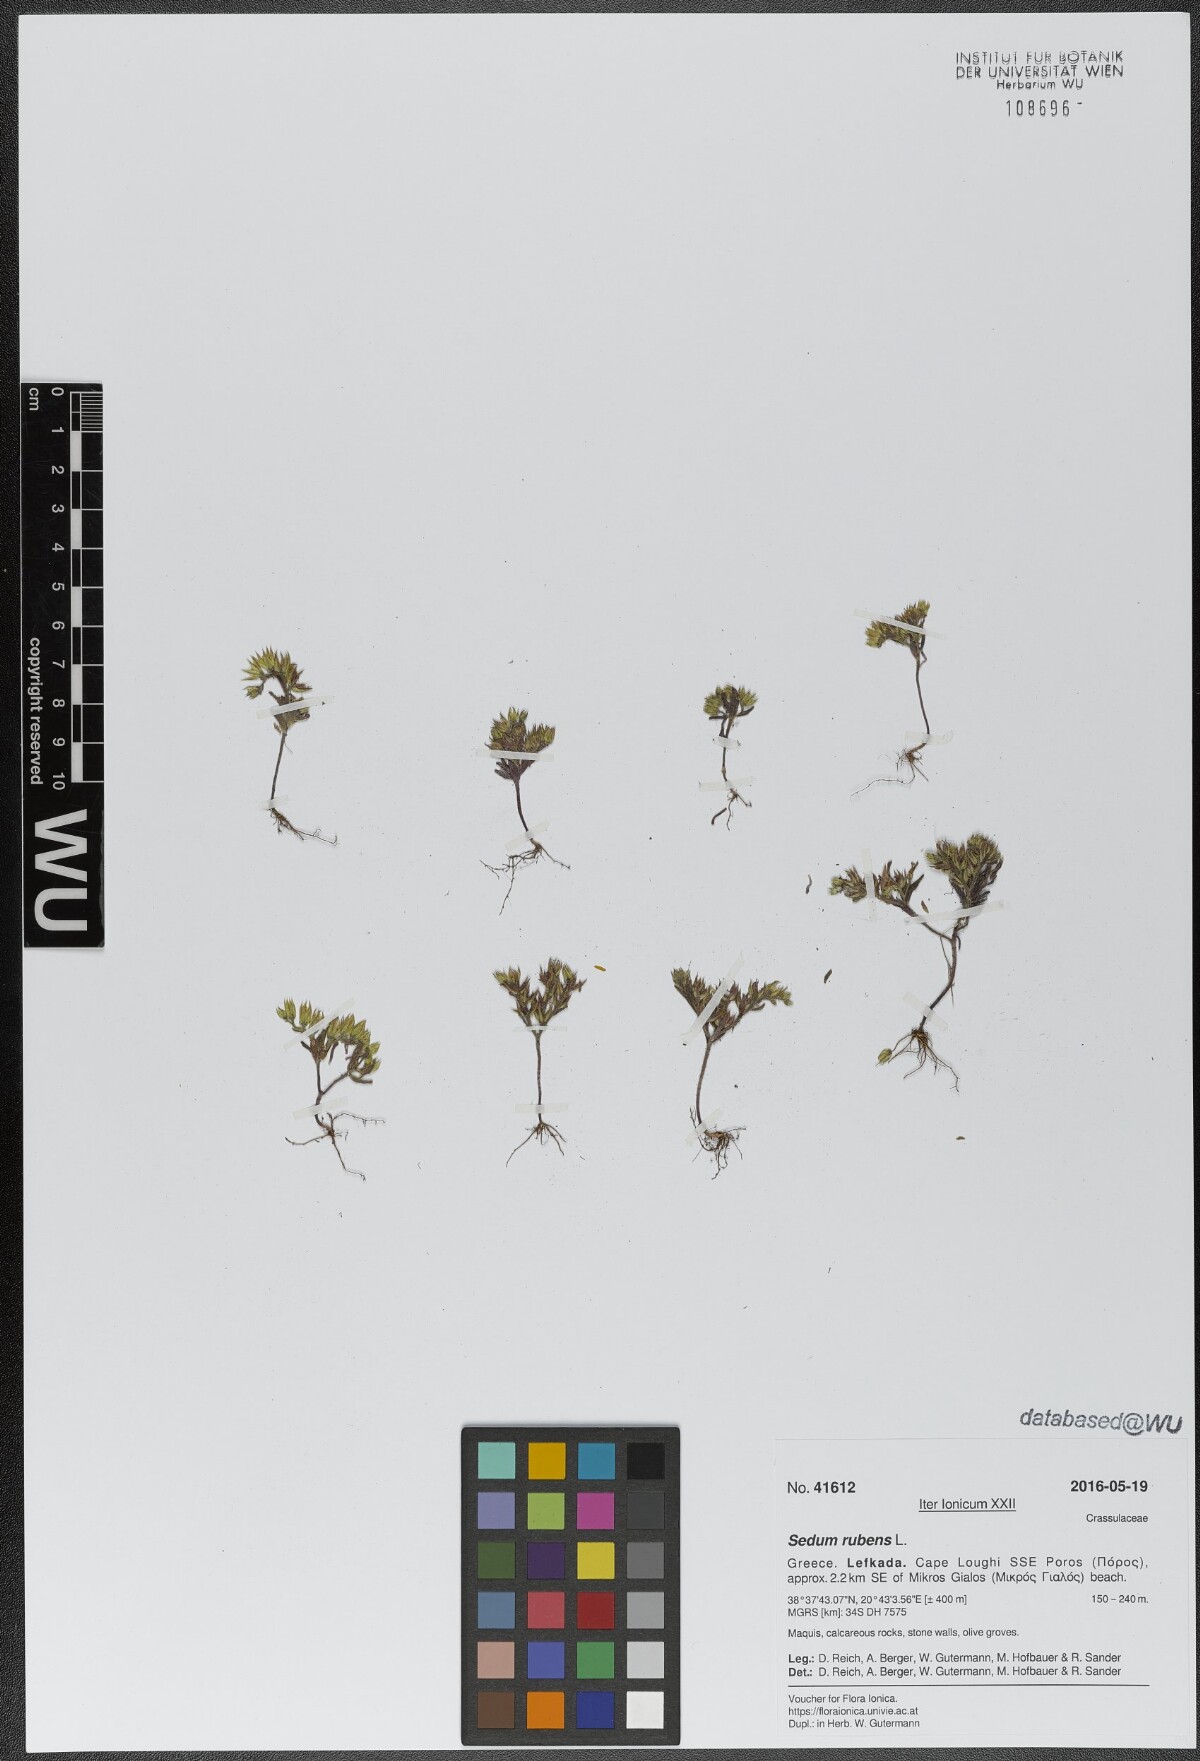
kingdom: Plantae
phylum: Tracheophyta
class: Magnoliopsida
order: Saxifragales
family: Crassulaceae
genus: Sedum
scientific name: Sedum rubens
